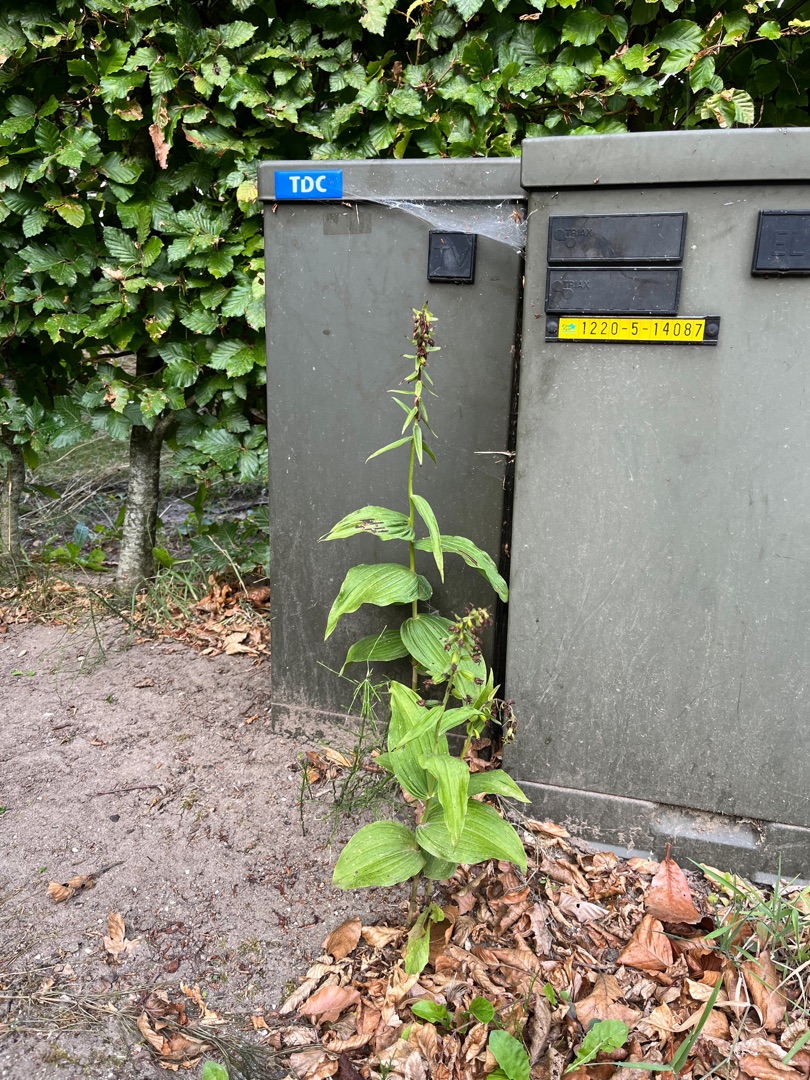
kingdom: Plantae
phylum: Tracheophyta
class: Liliopsida
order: Asparagales
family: Orchidaceae
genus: Epipactis
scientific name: Epipactis helleborine
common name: Skov-hullæbe
